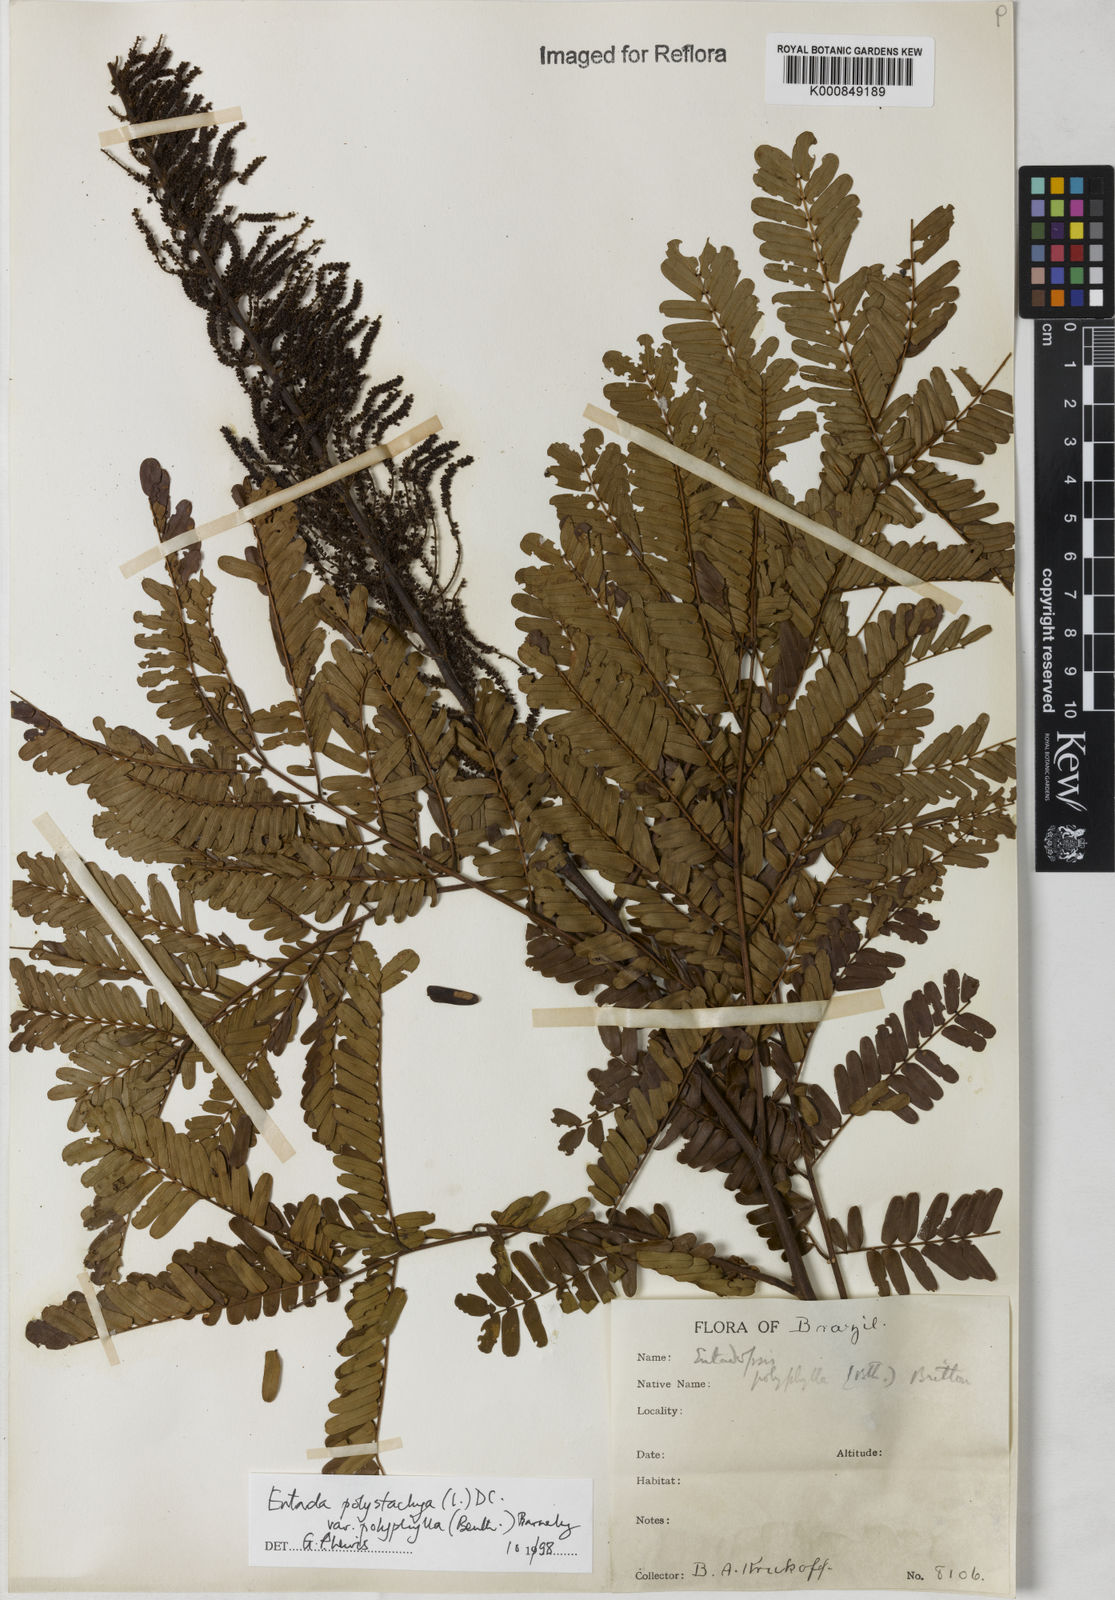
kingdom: Plantae
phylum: Tracheophyta
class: Magnoliopsida
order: Fabales
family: Fabaceae
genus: Entada
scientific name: Entada polyphylla
